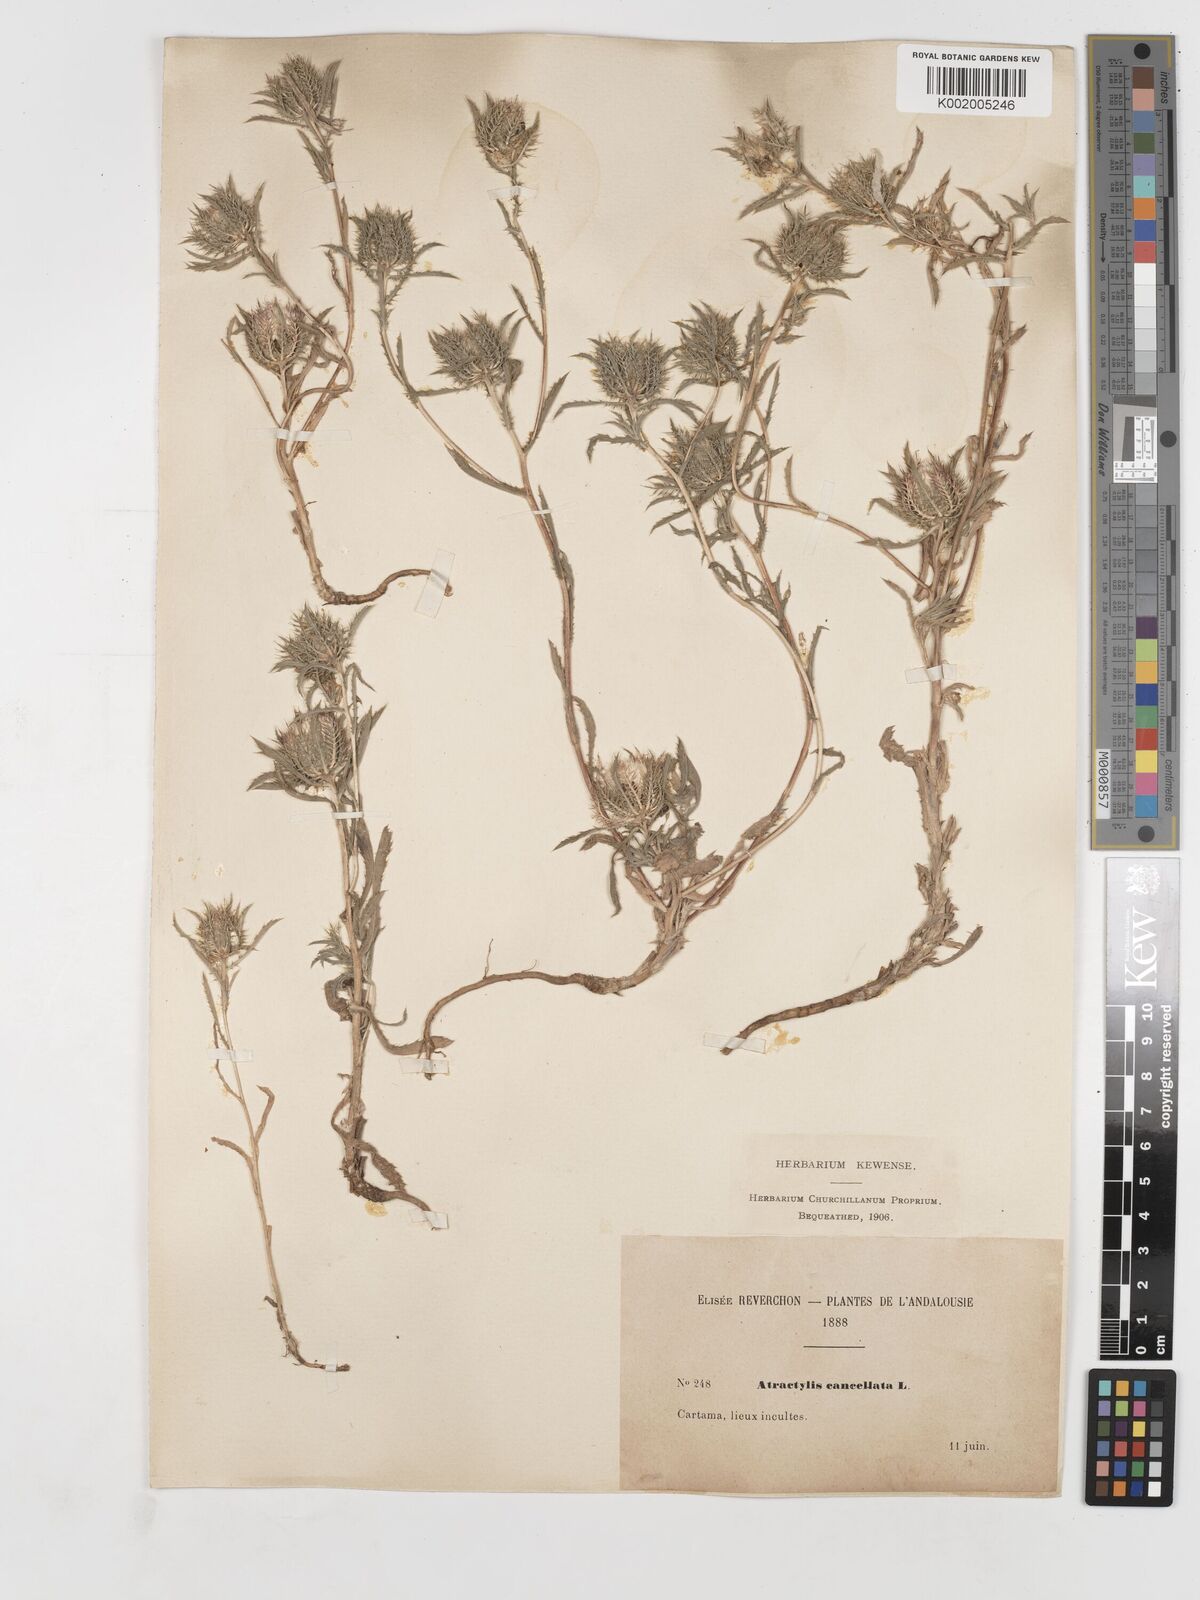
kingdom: Plantae
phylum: Tracheophyta
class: Magnoliopsida
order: Asterales
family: Asteraceae
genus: Atractylis
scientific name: Atractylis cancellata
